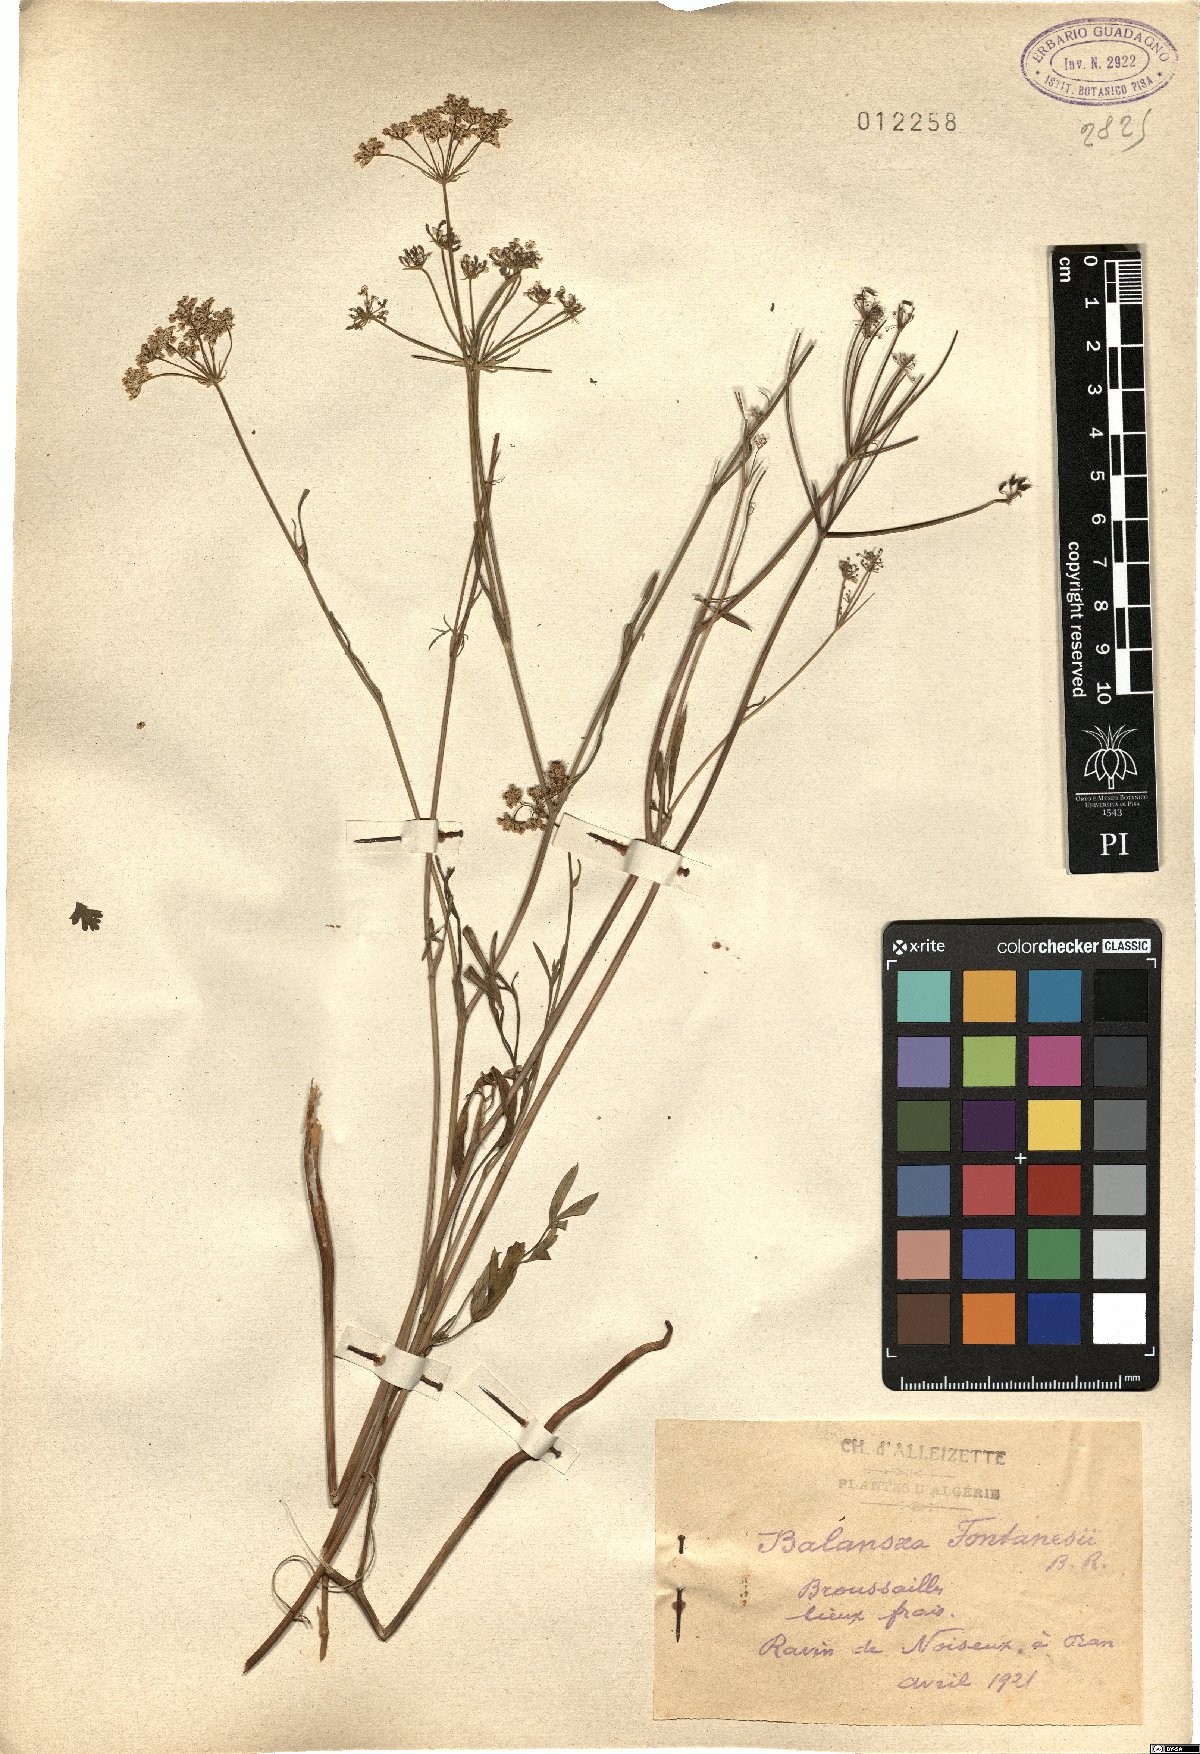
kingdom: Plantae
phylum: Tracheophyta
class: Magnoliopsida
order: Apiales
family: Apiaceae
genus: Conopodium
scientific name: Conopodium glaberrimum
